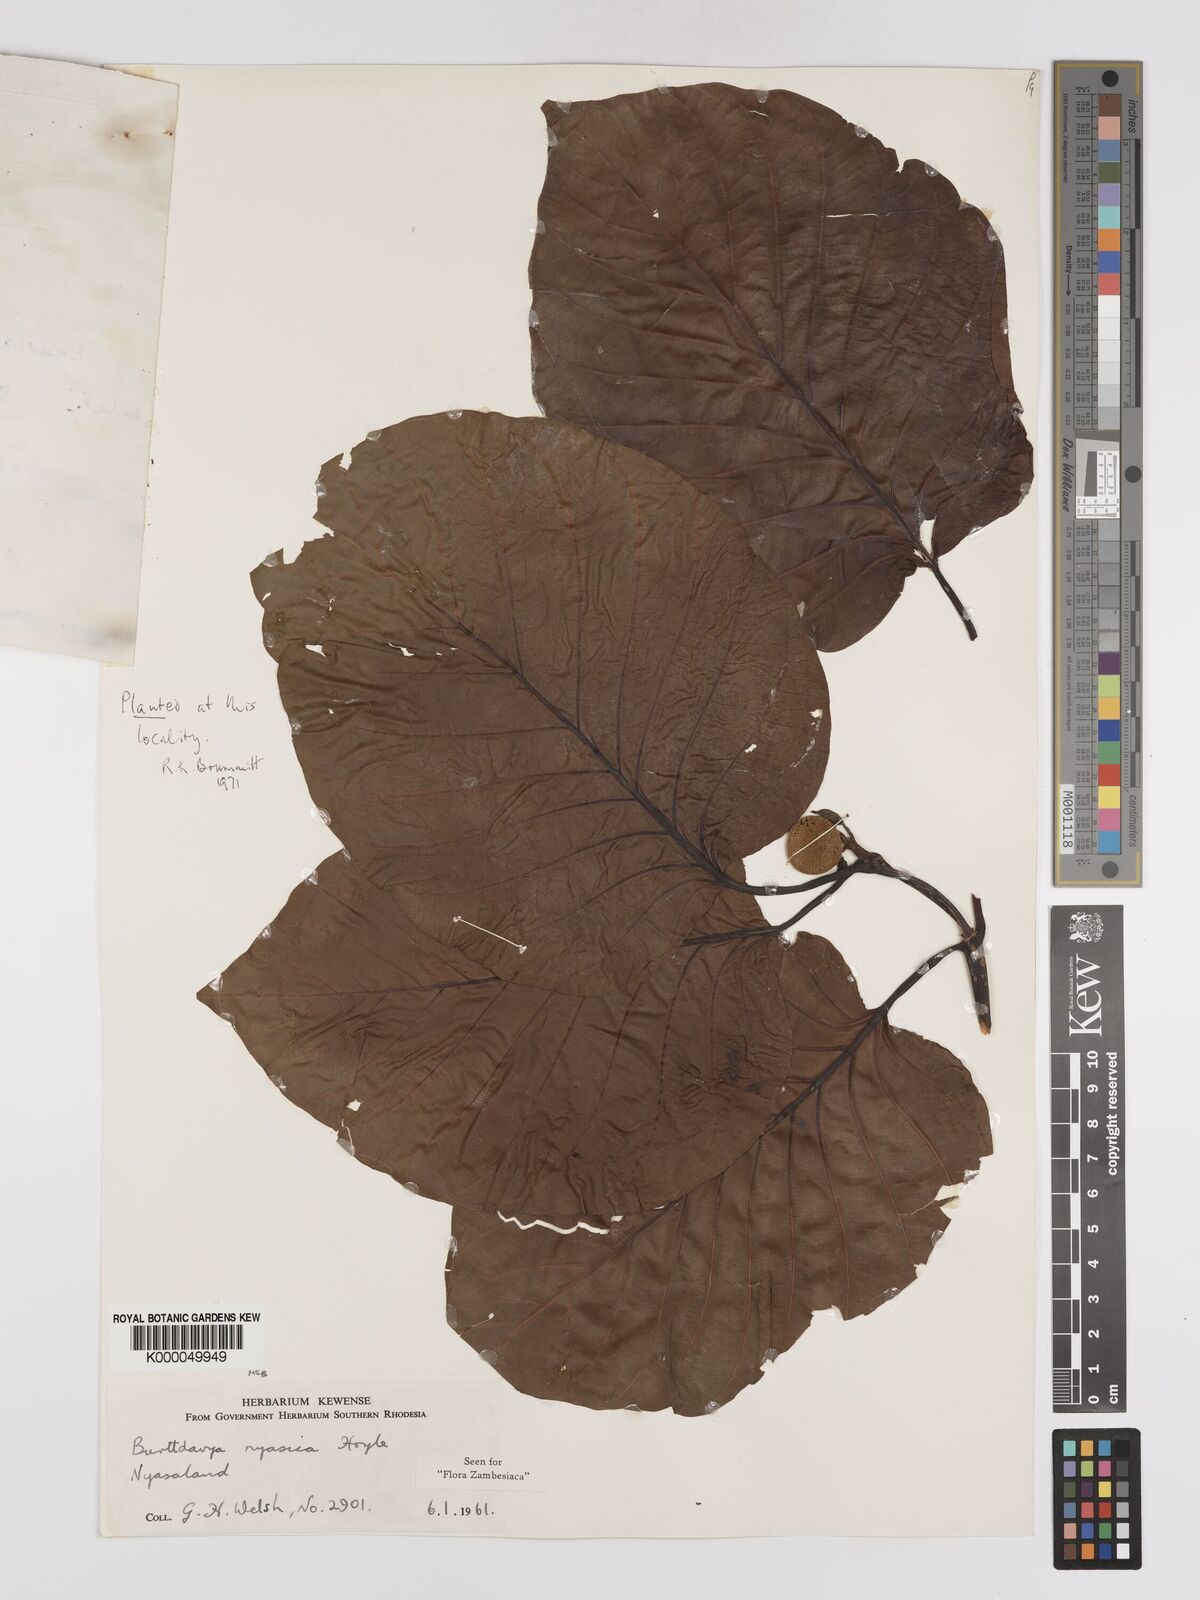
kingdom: Plantae
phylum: Tracheophyta
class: Magnoliopsida
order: Gentianales
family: Rubiaceae
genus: Nauclea
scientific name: Nauclea nyasica
